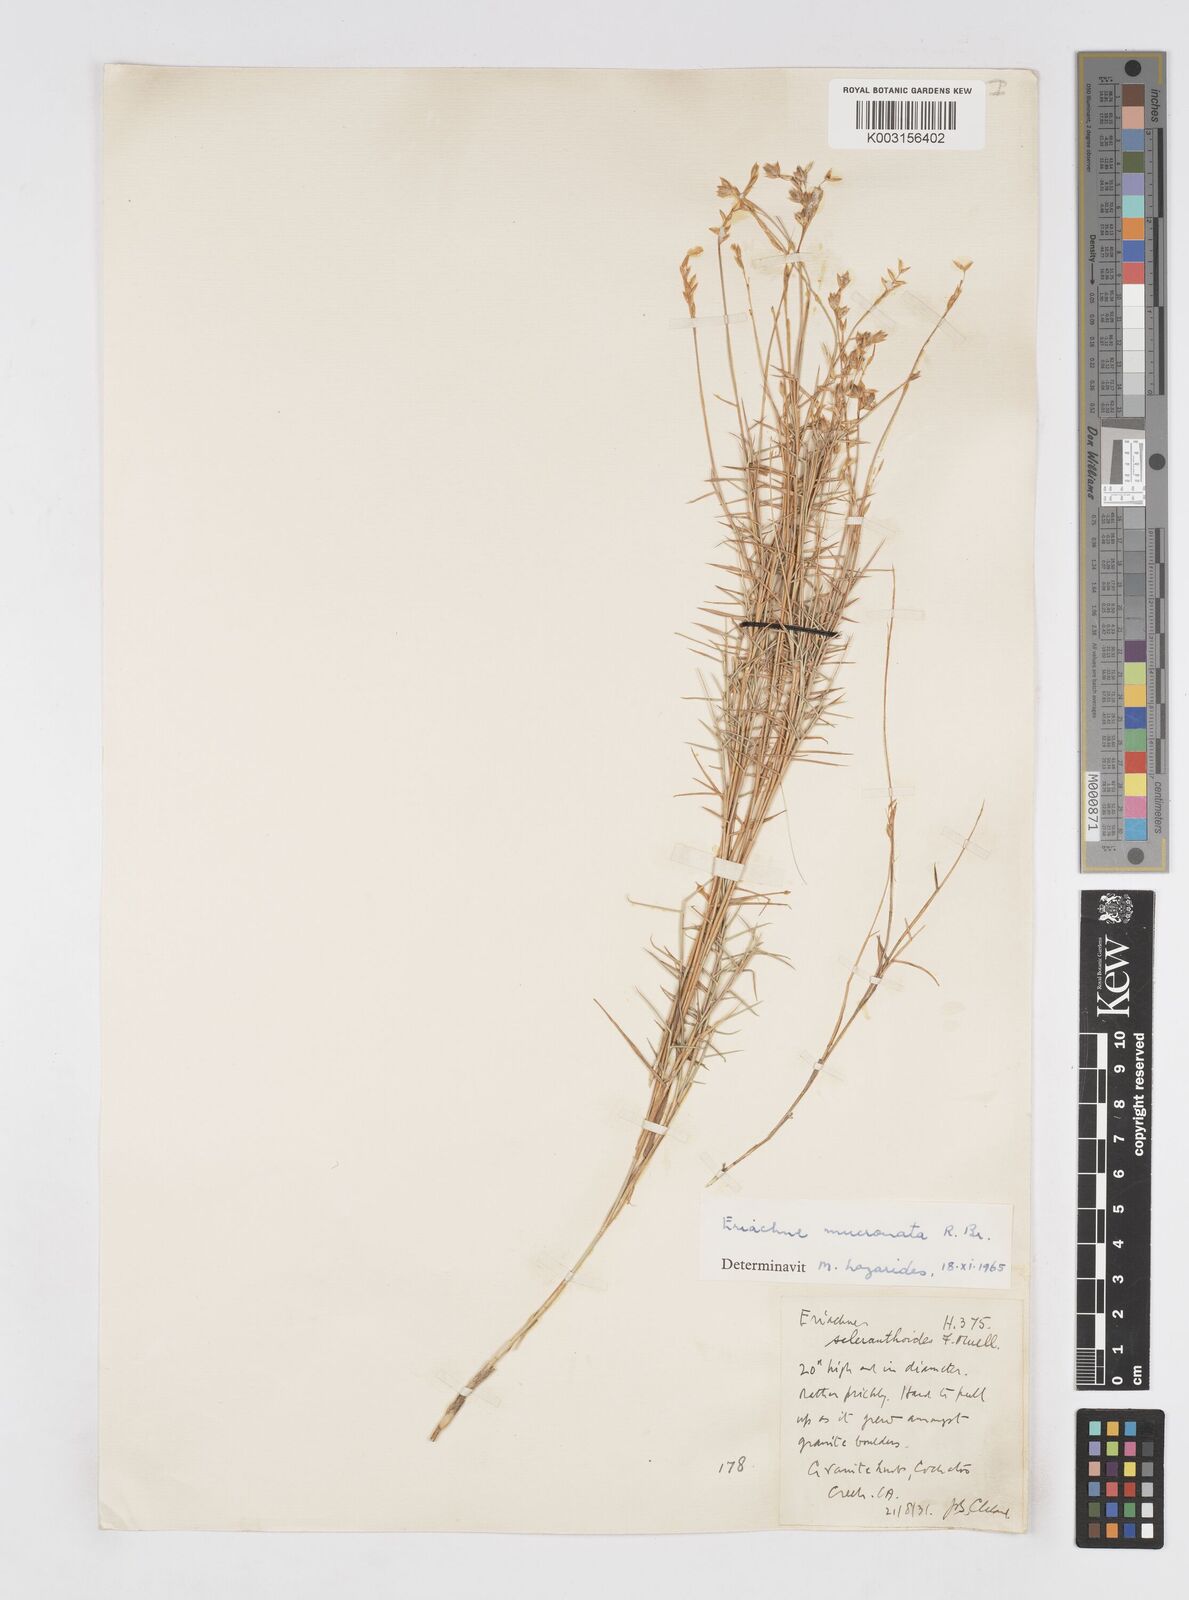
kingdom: Plantae
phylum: Tracheophyta
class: Liliopsida
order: Poales
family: Poaceae
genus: Eriachne
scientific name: Eriachne mucronata
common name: Mountain wanderrie grass
